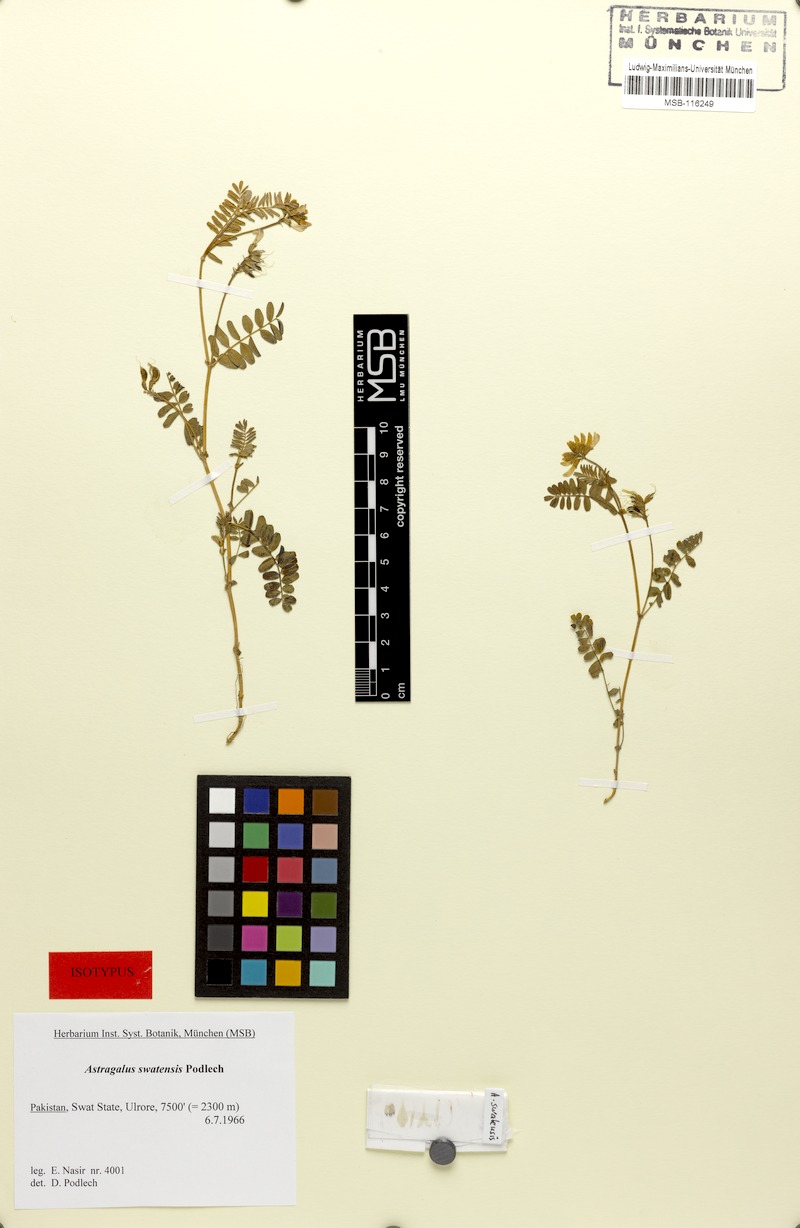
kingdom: Plantae
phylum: Tracheophyta
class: Magnoliopsida
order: Fabales
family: Fabaceae
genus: Astragalus
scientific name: Astragalus swatensis
